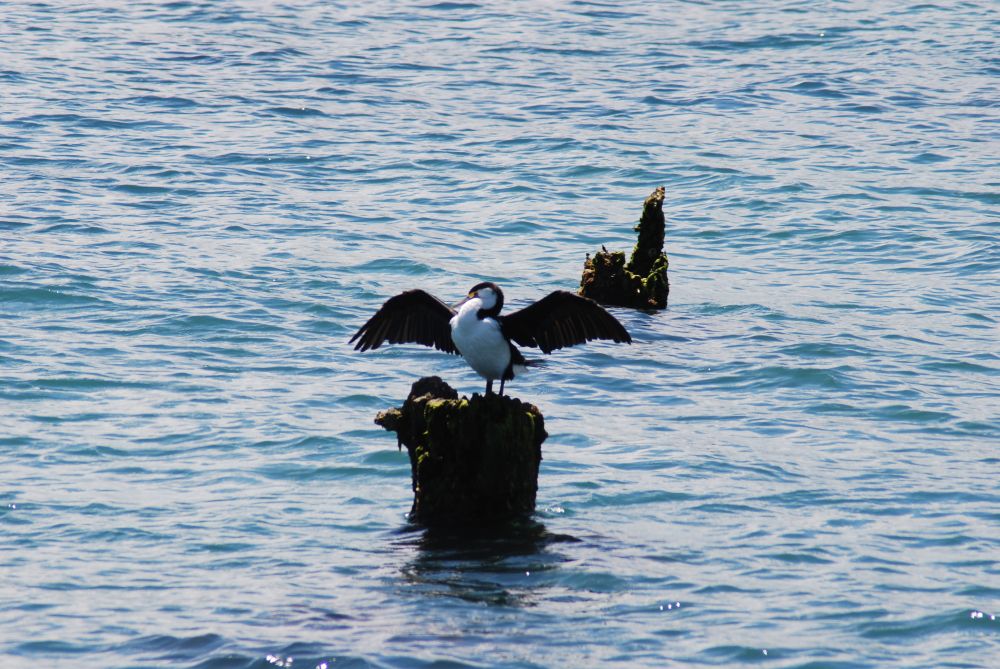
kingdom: Animalia
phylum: Chordata
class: Aves
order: Suliformes
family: Phalacrocoracidae
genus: Phalacrocorax
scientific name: Phalacrocorax varius
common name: Pied cormorant
